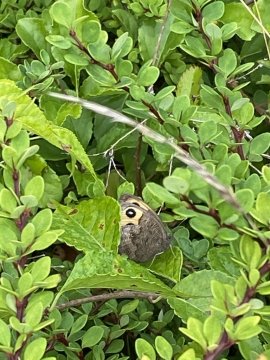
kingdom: Animalia
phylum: Arthropoda
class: Insecta
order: Lepidoptera
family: Nymphalidae
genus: Cercyonis
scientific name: Cercyonis pegala
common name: Common Wood-Nymph
